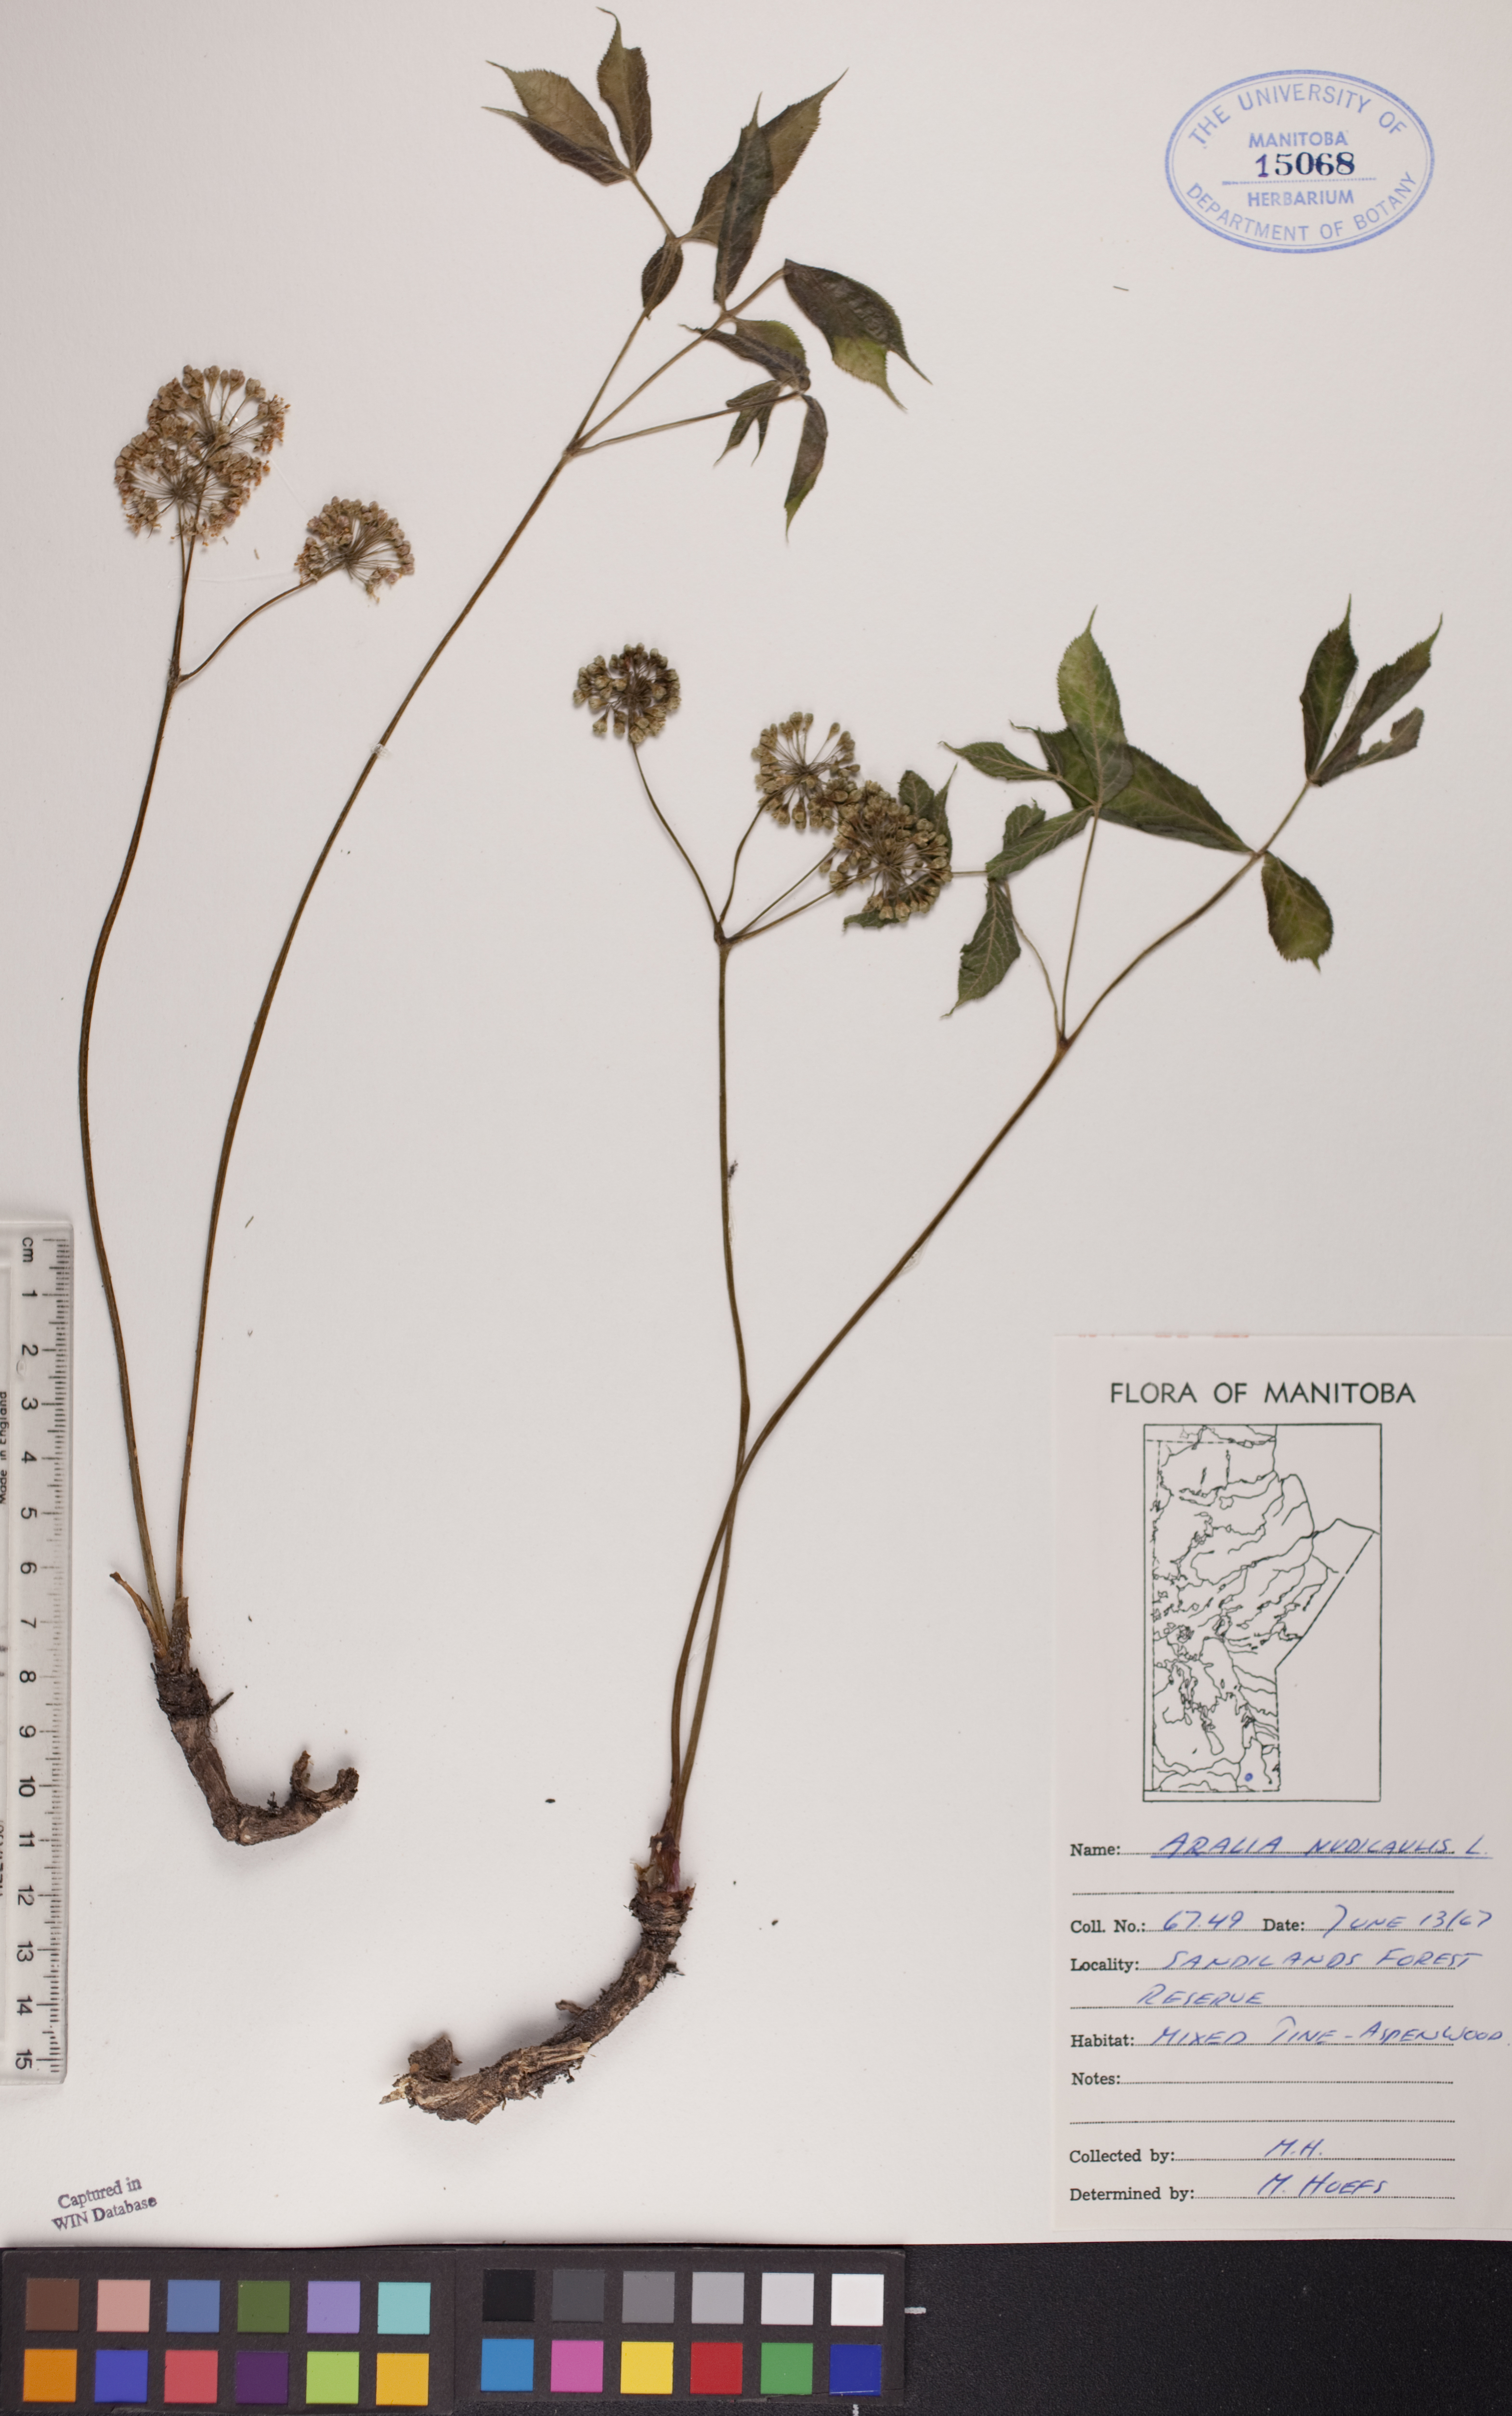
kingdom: Plantae
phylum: Tracheophyta
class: Magnoliopsida
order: Apiales
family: Araliaceae
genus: Aralia
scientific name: Aralia nudicaulis
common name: Wild sarsaparilla
